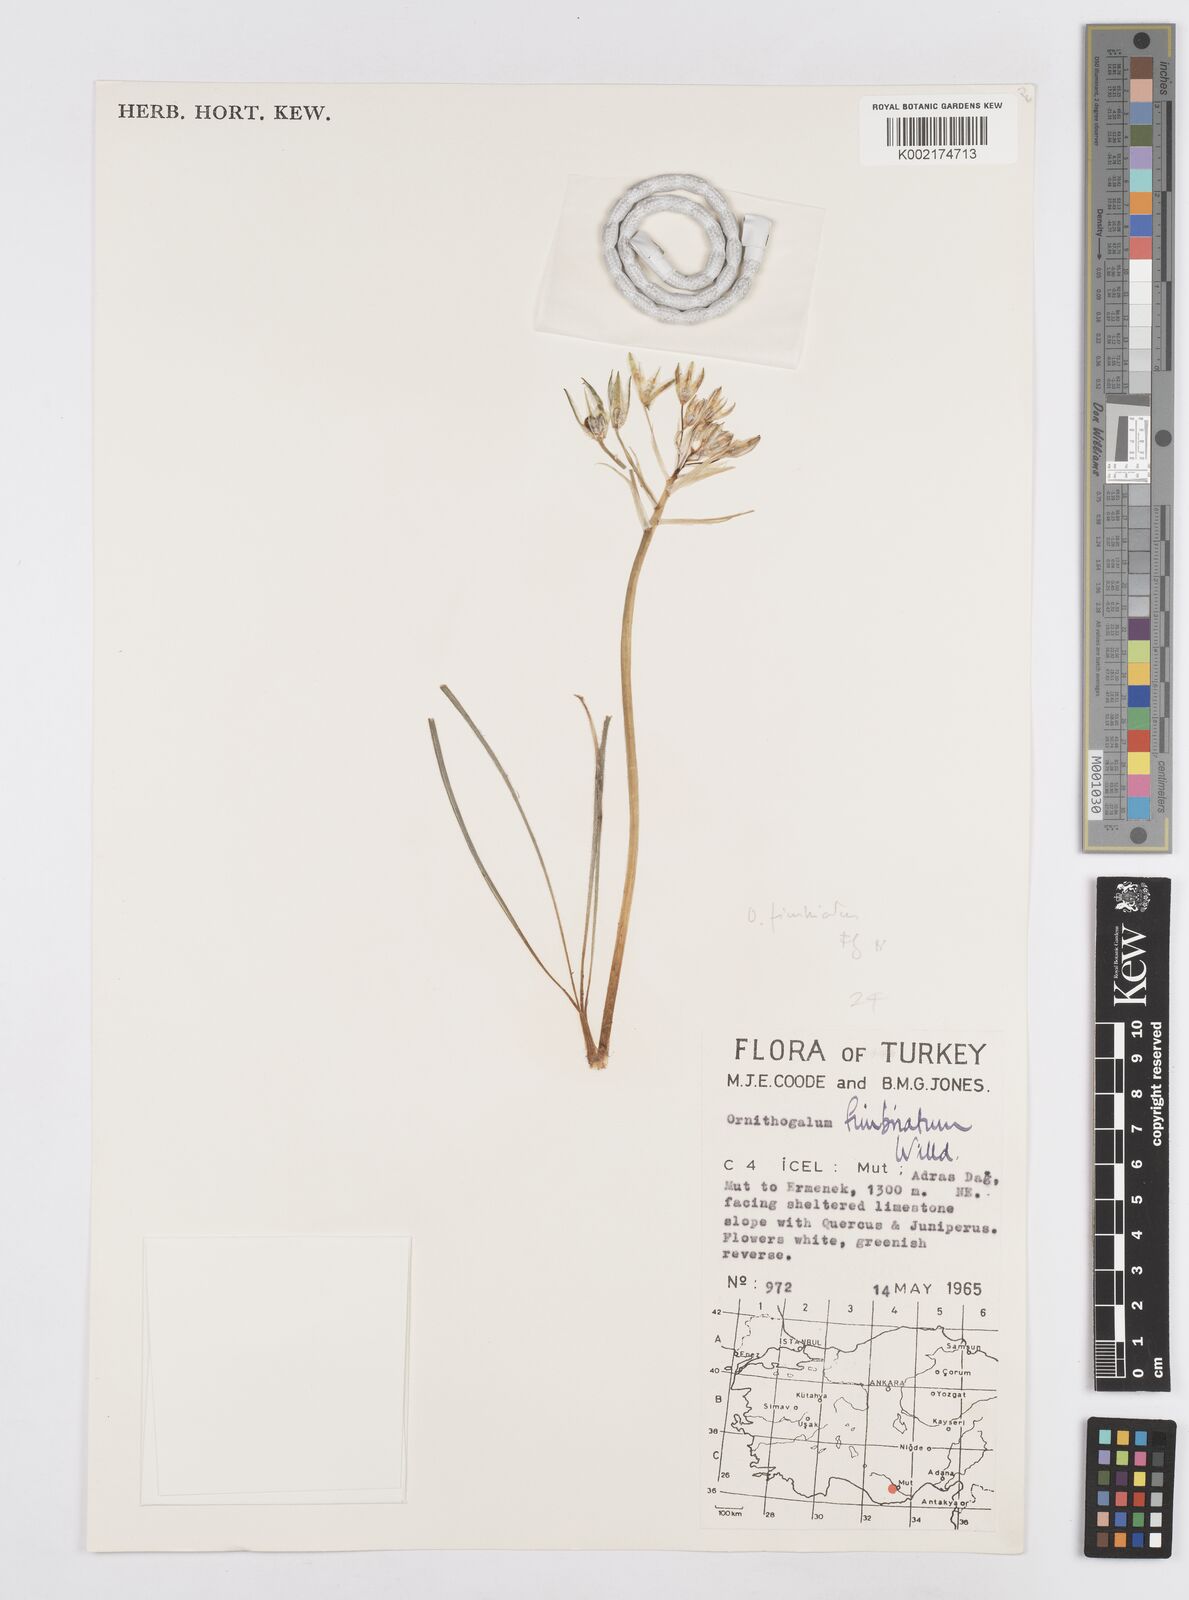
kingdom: Plantae
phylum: Tracheophyta
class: Liliopsida
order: Asparagales
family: Asparagaceae
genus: Ornithogalum
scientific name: Ornithogalum fimbriatum
